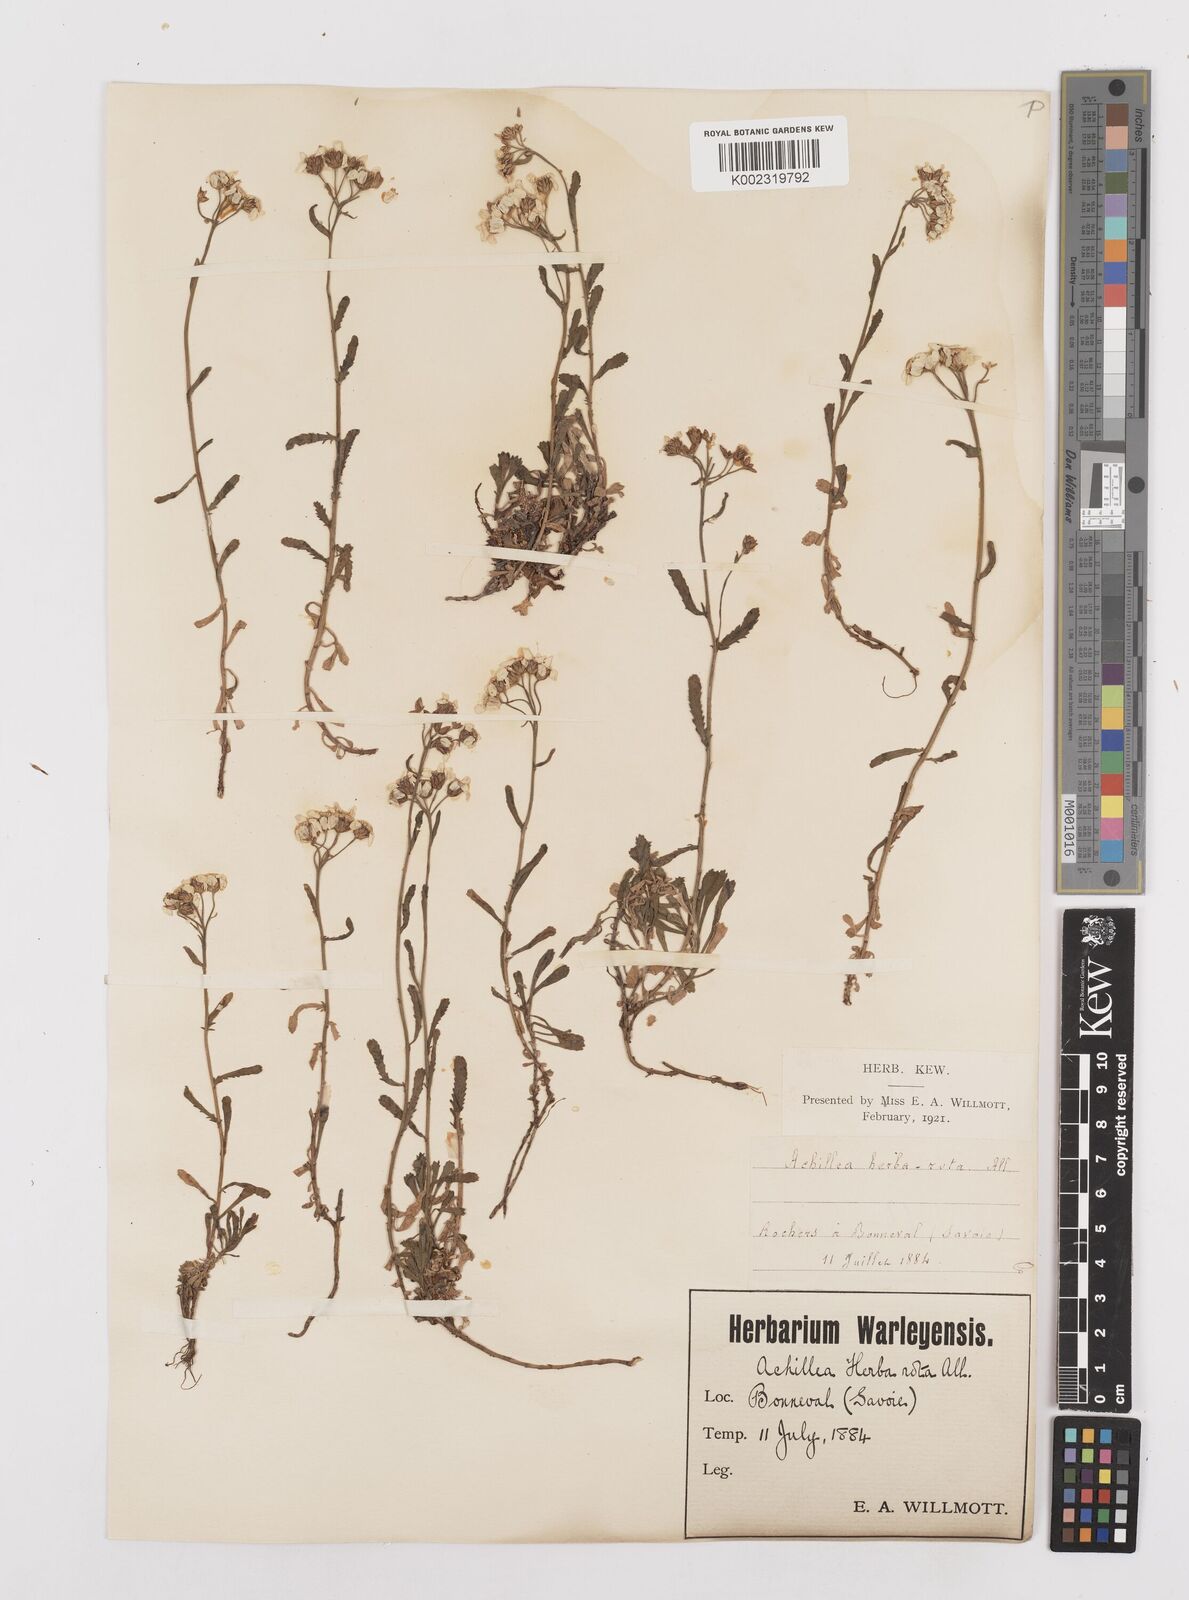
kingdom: Plantae
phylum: Tracheophyta
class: Magnoliopsida
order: Asterales
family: Asteraceae
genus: Achillea
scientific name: Achillea erba-rotta
